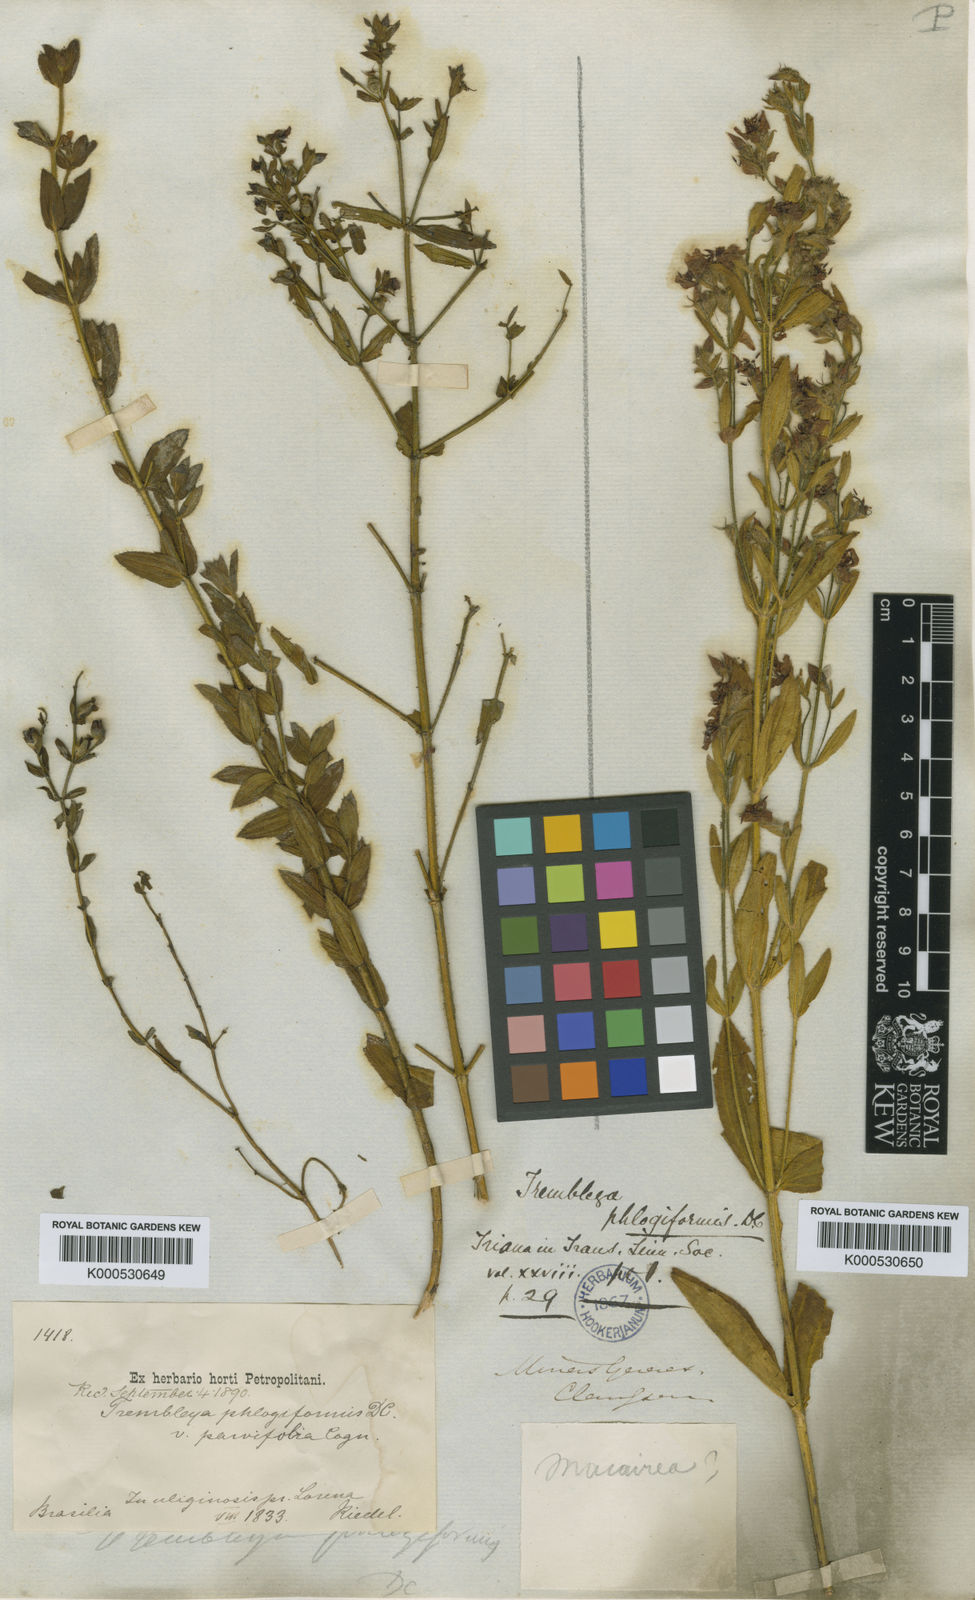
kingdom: Plantae
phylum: Tracheophyta
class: Magnoliopsida
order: Myrtales
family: Melastomataceae
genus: Microlicia
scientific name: Microlicia phlogiformis
